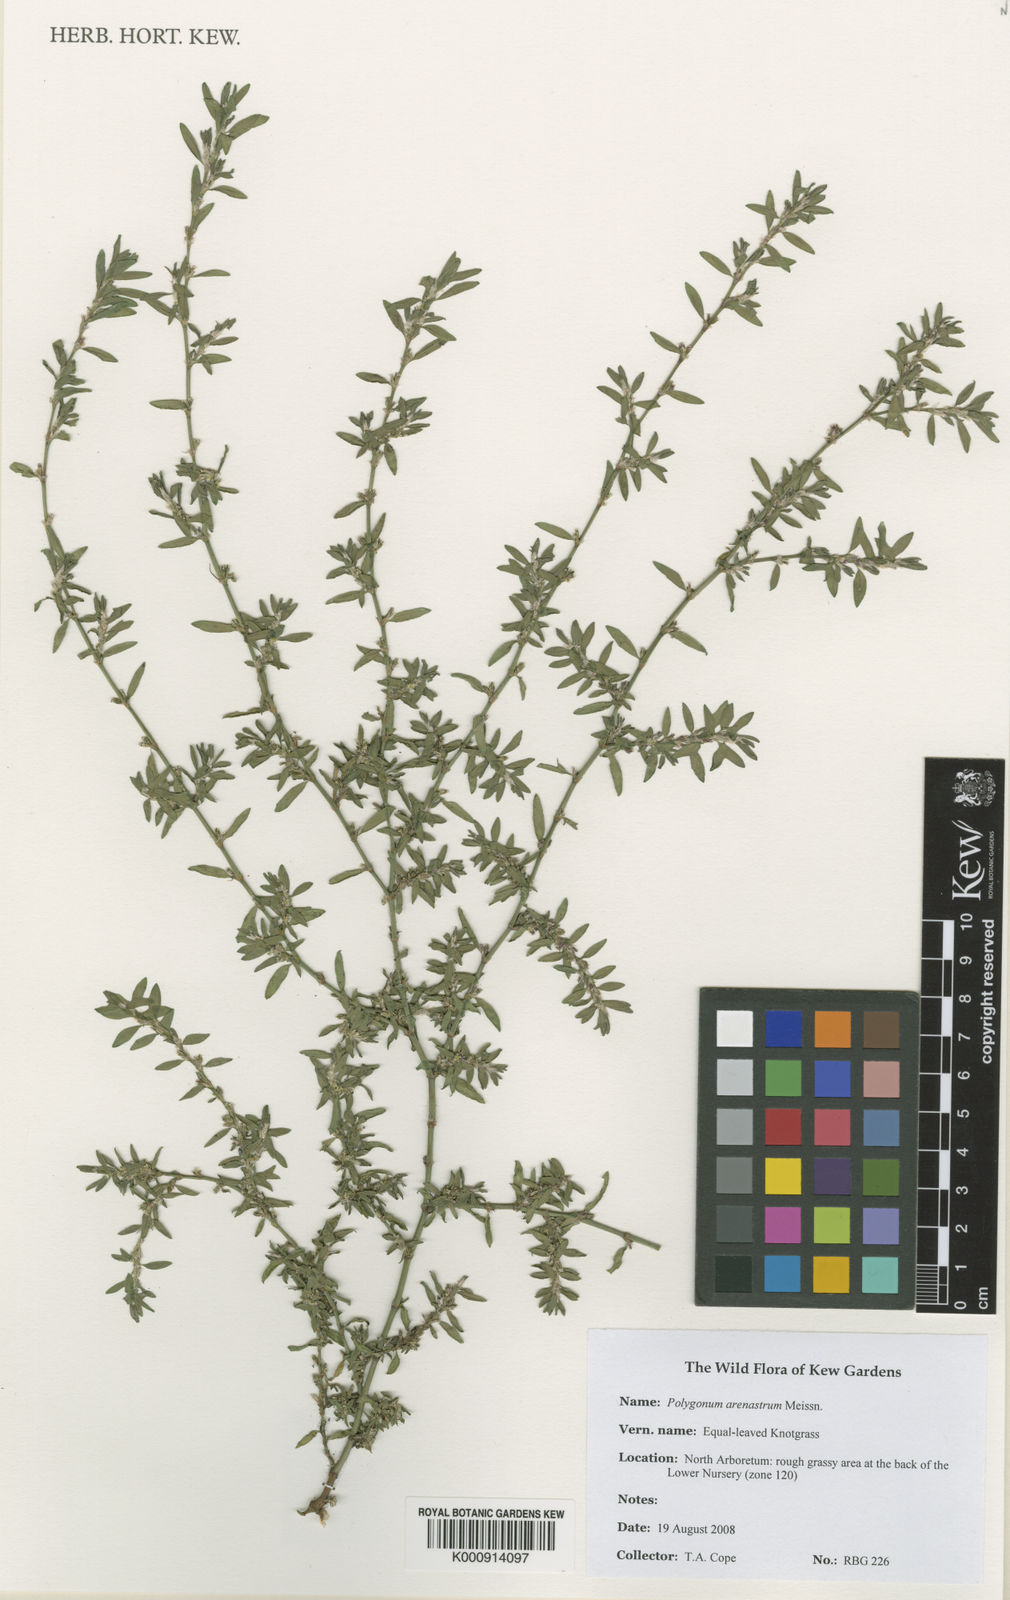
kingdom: Plantae
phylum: Tracheophyta
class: Magnoliopsida
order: Caryophyllales
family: Polygonaceae
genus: Polygonum
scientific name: Polygonum arenastrum
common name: Equal-leaved knotgrass
